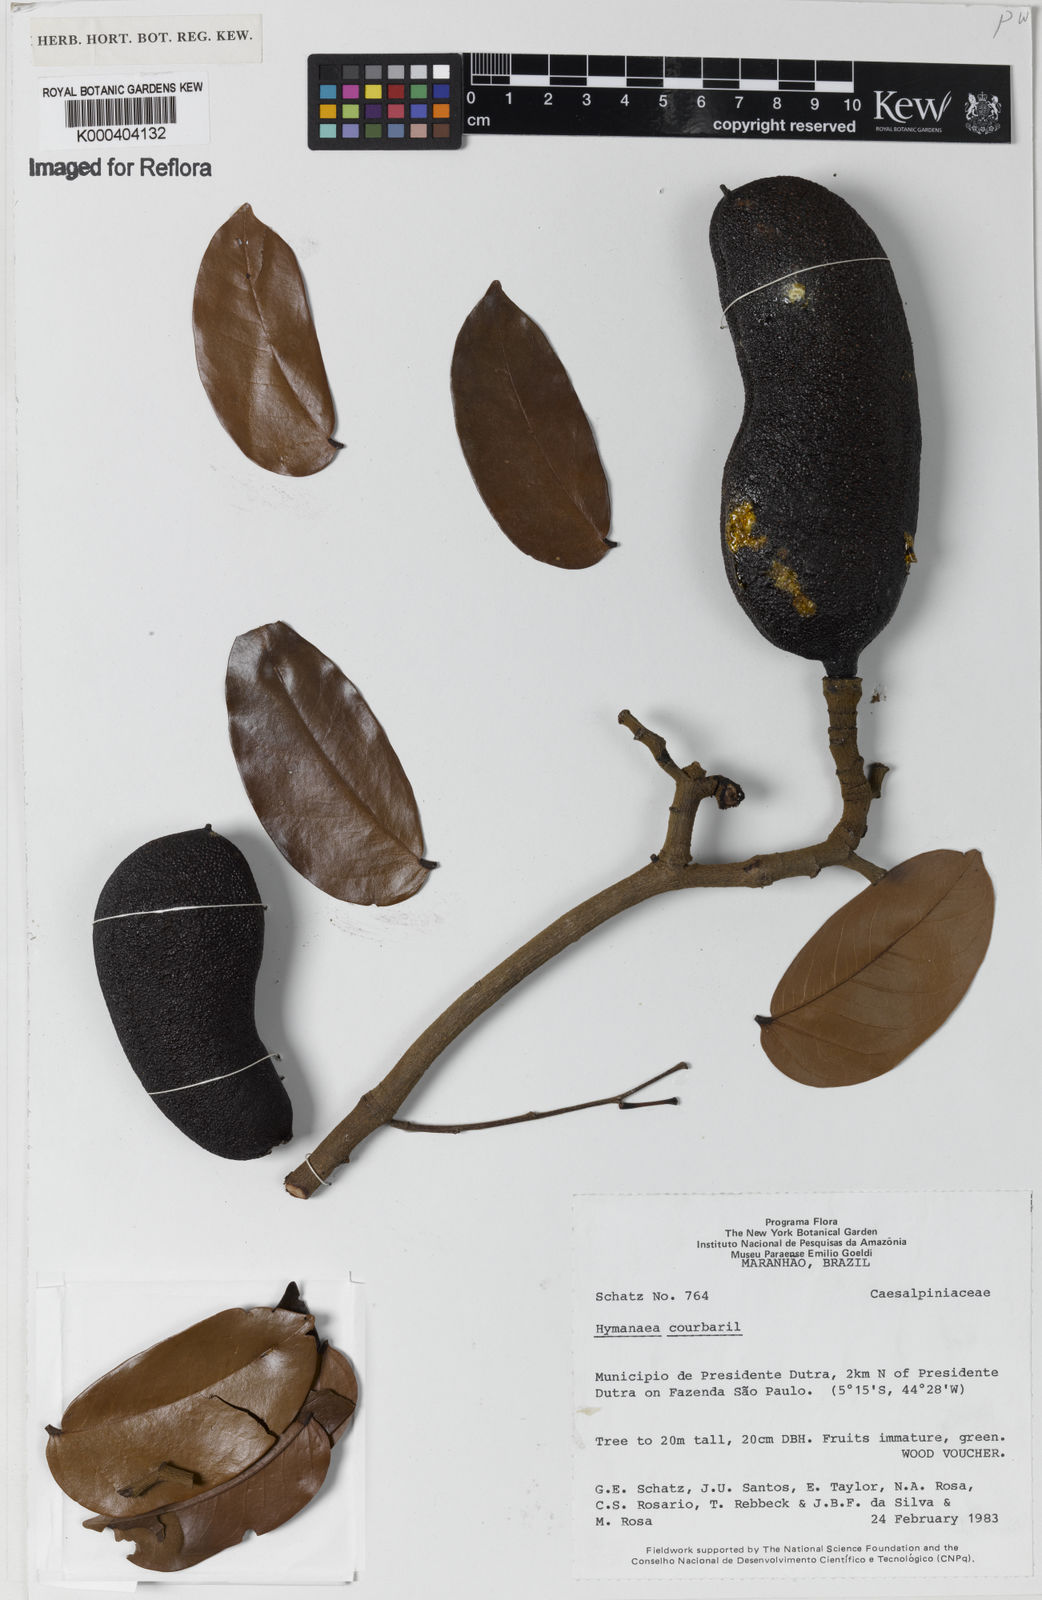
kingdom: Plantae
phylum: Tracheophyta
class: Magnoliopsida
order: Fabales
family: Fabaceae
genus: Hymenaea
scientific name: Hymenaea courbaril
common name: Brazilian copal
